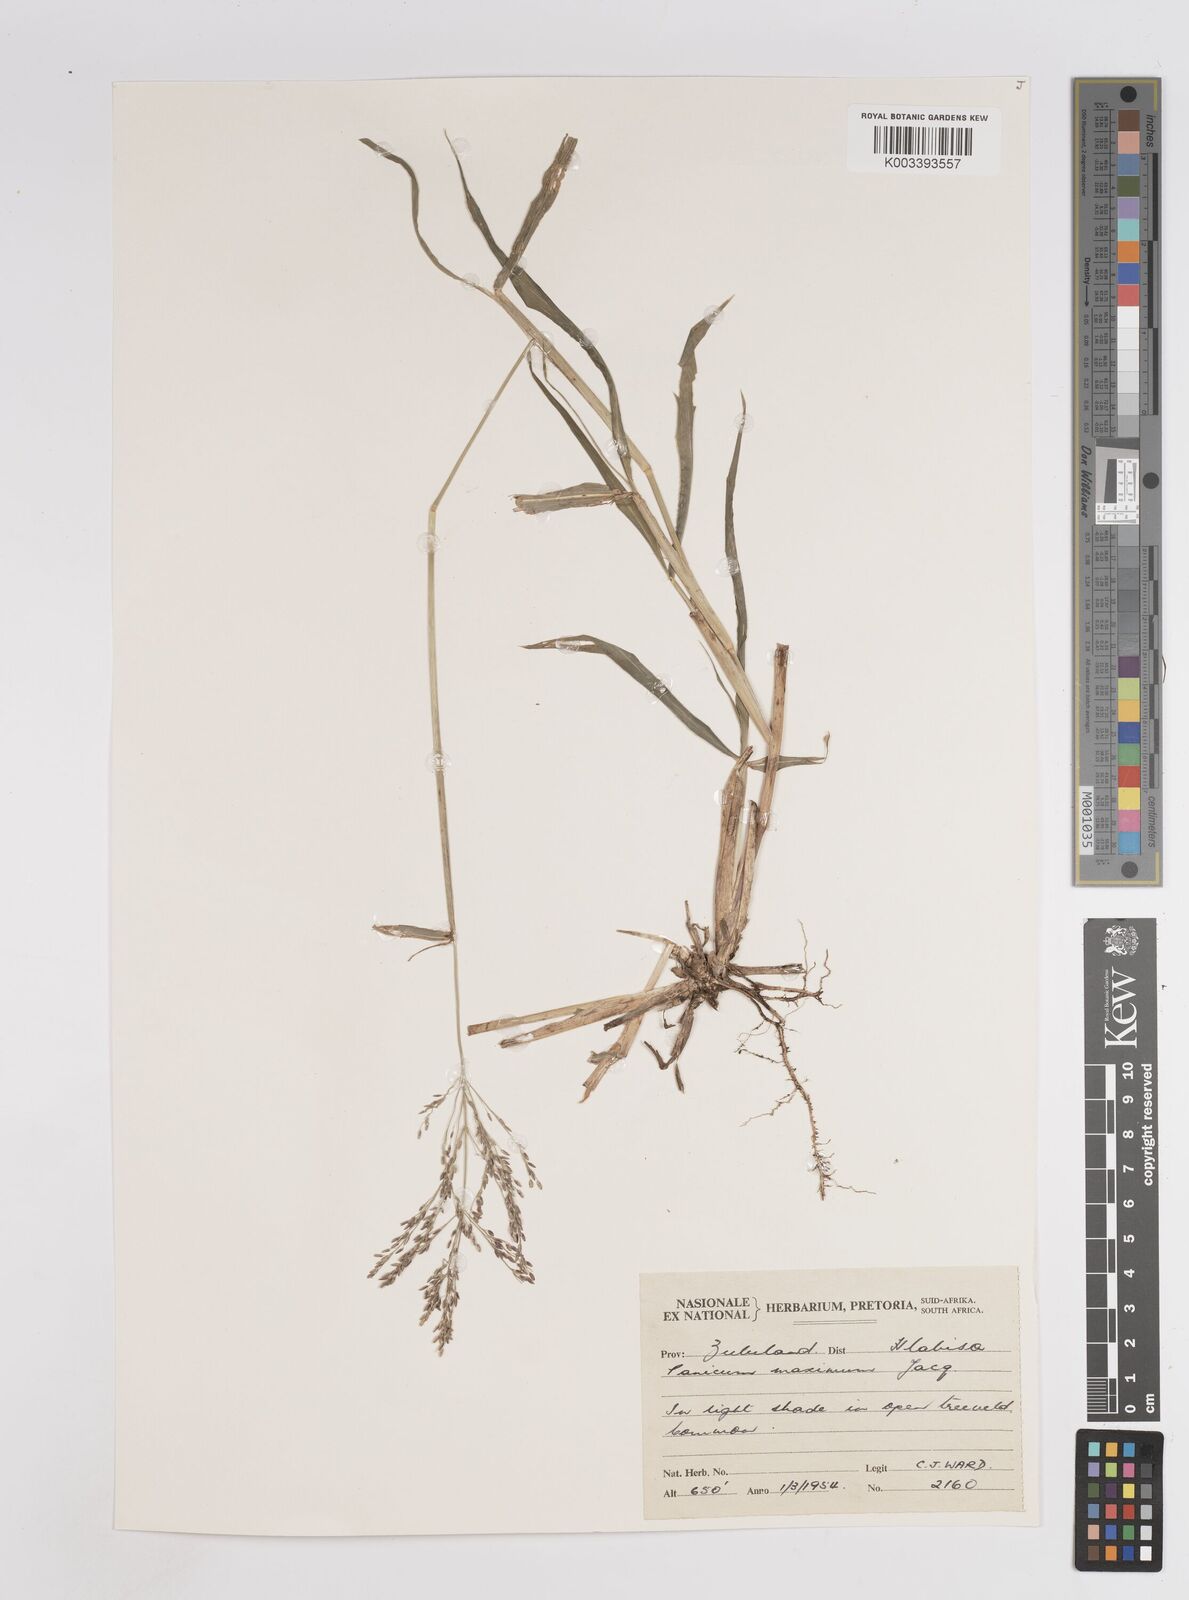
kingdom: Plantae
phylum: Tracheophyta
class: Liliopsida
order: Poales
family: Poaceae
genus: Megathyrsus
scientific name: Megathyrsus maximus
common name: Guineagrass
